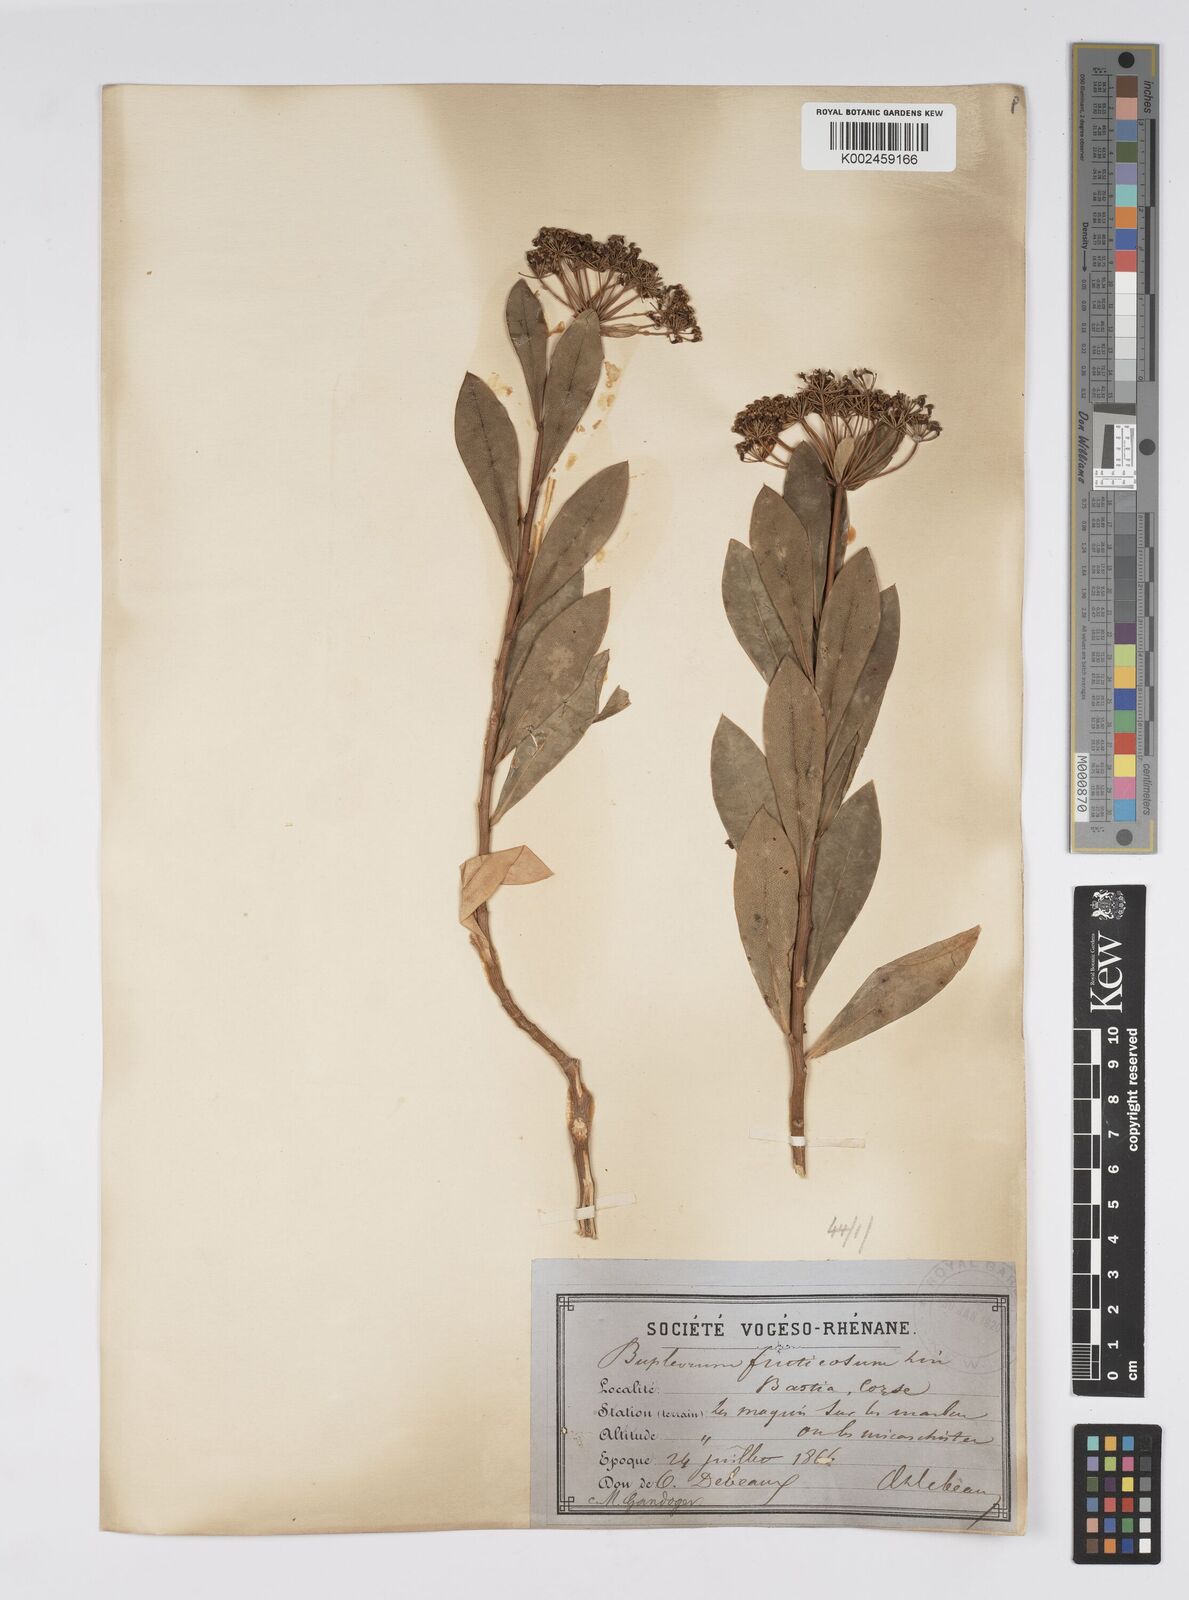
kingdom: Plantae
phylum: Tracheophyta
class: Magnoliopsida
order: Apiales
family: Apiaceae
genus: Bupleurum
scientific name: Bupleurum fruticosum
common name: Shrubby hare's-ear
